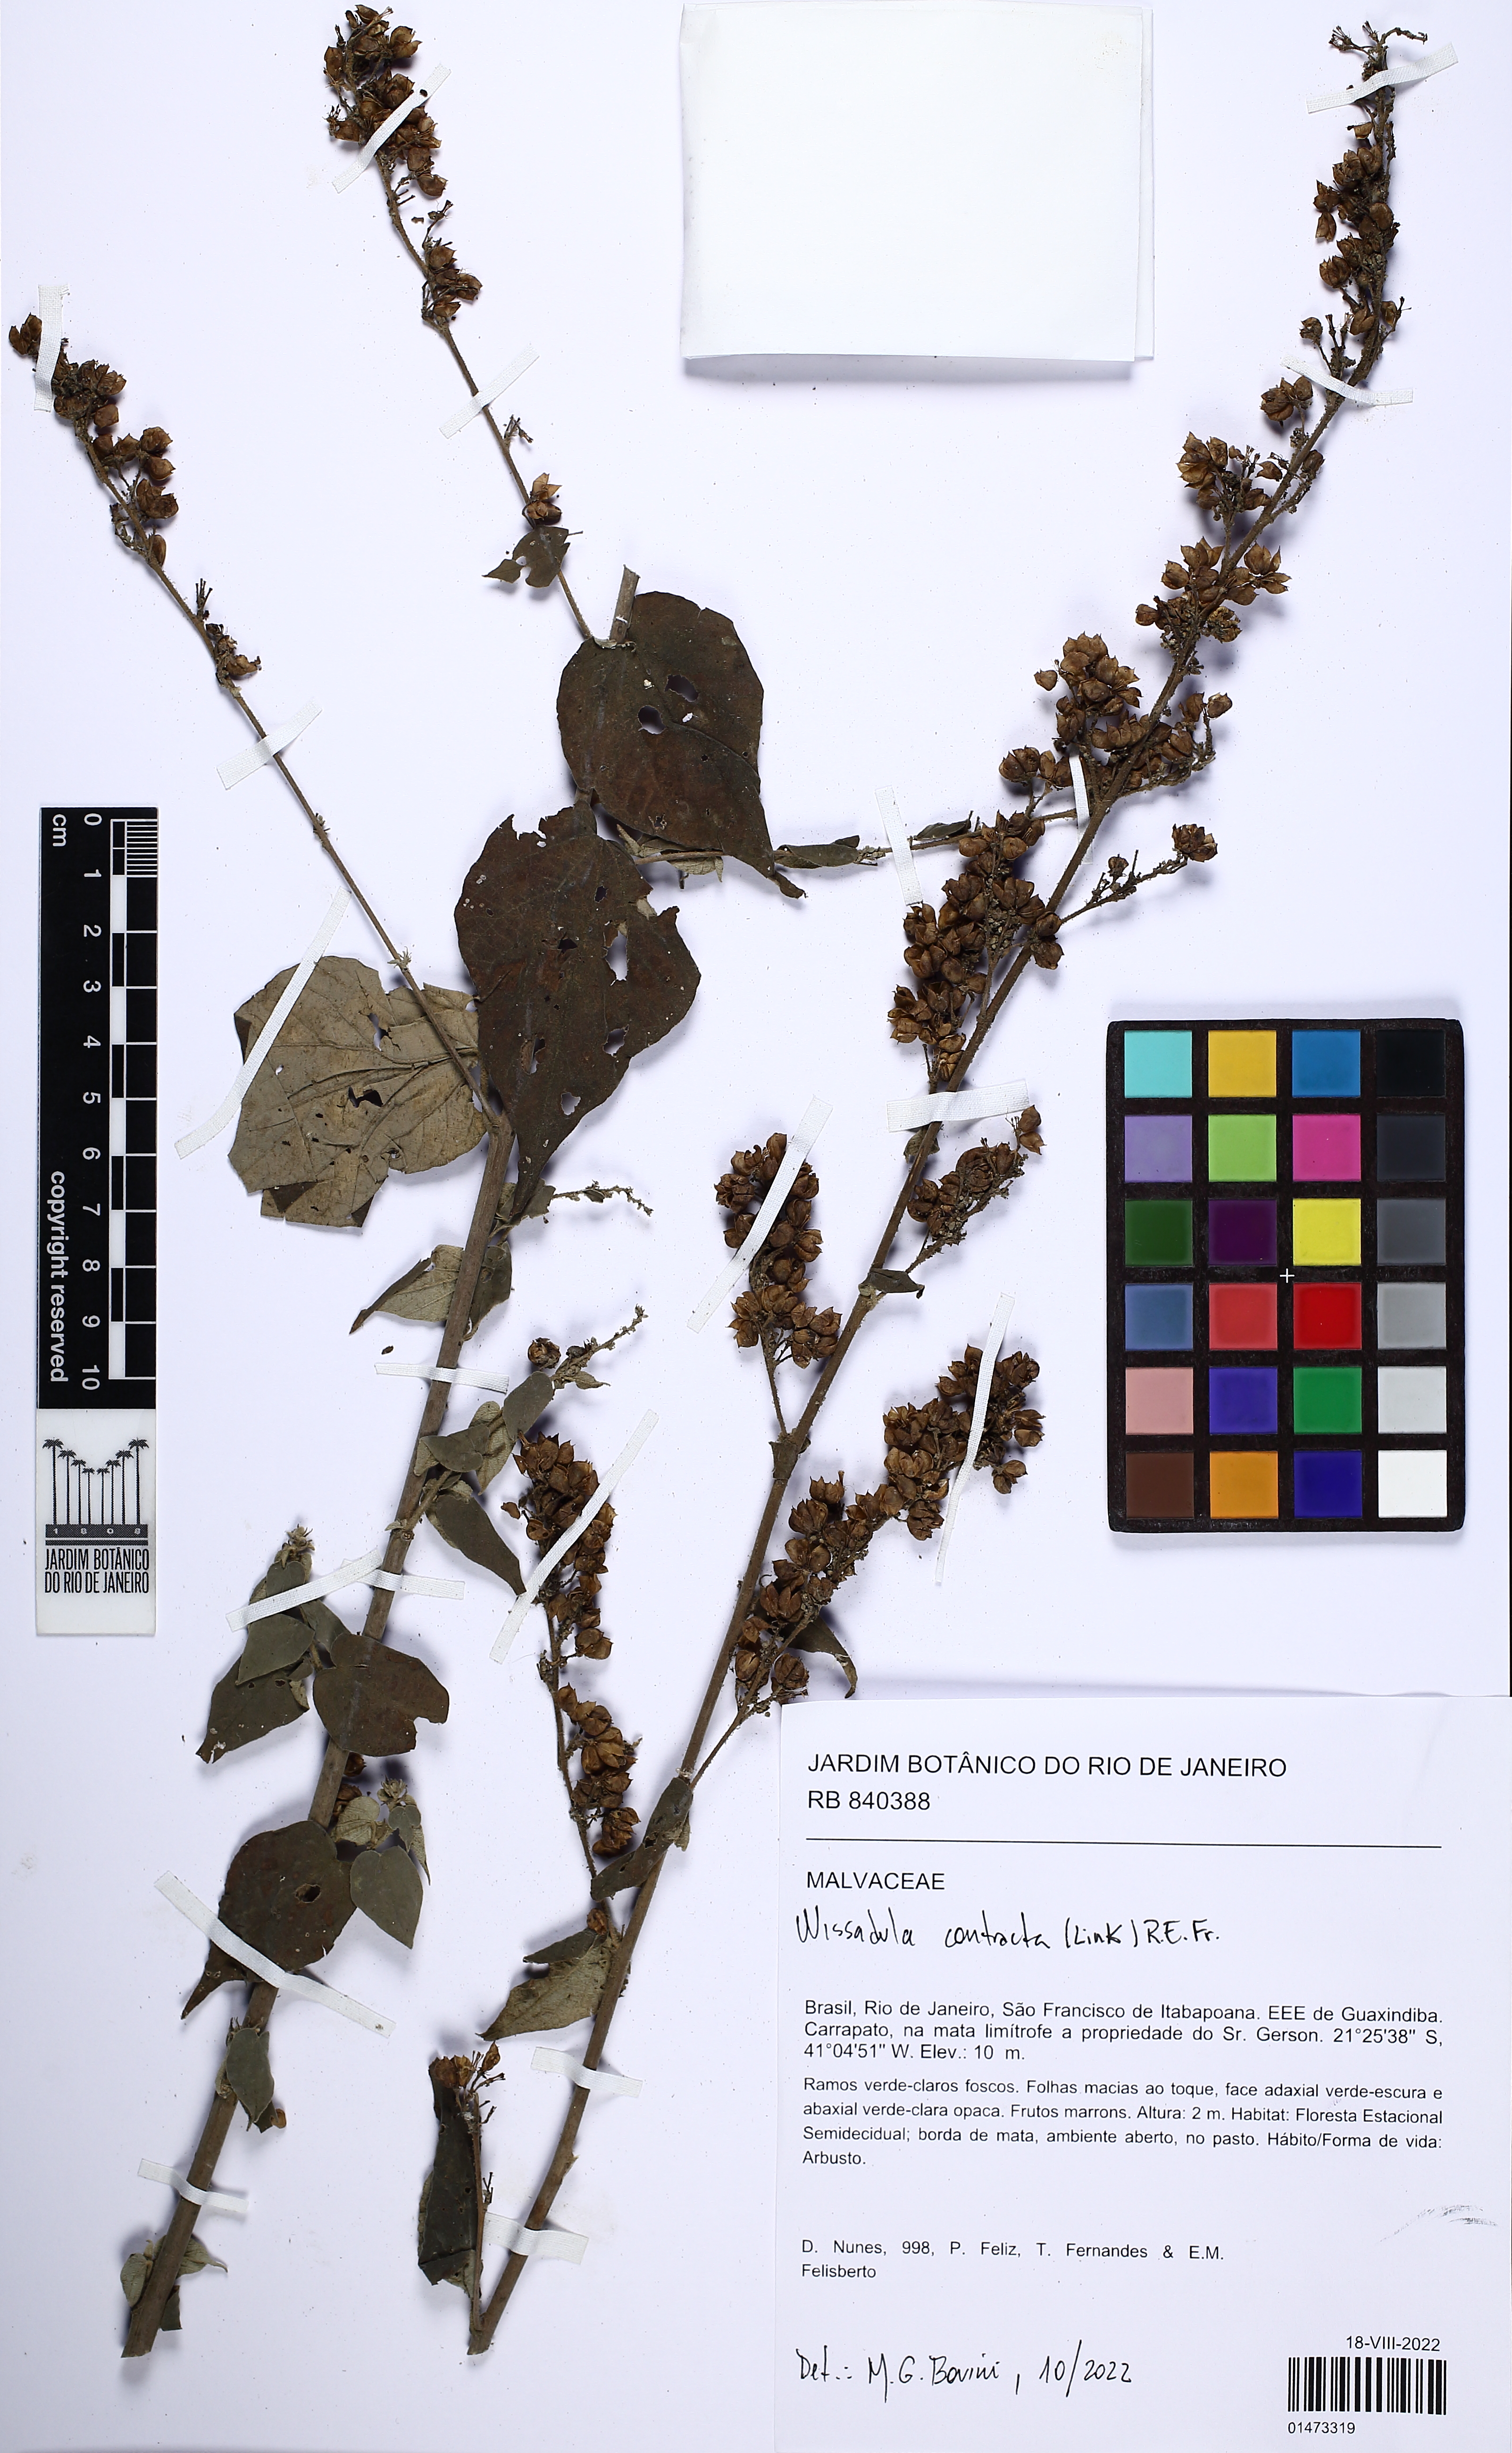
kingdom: Plantae
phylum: Tracheophyta
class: Magnoliopsida
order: Malvales
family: Malvaceae
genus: Wissadula
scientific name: Wissadula contracta
